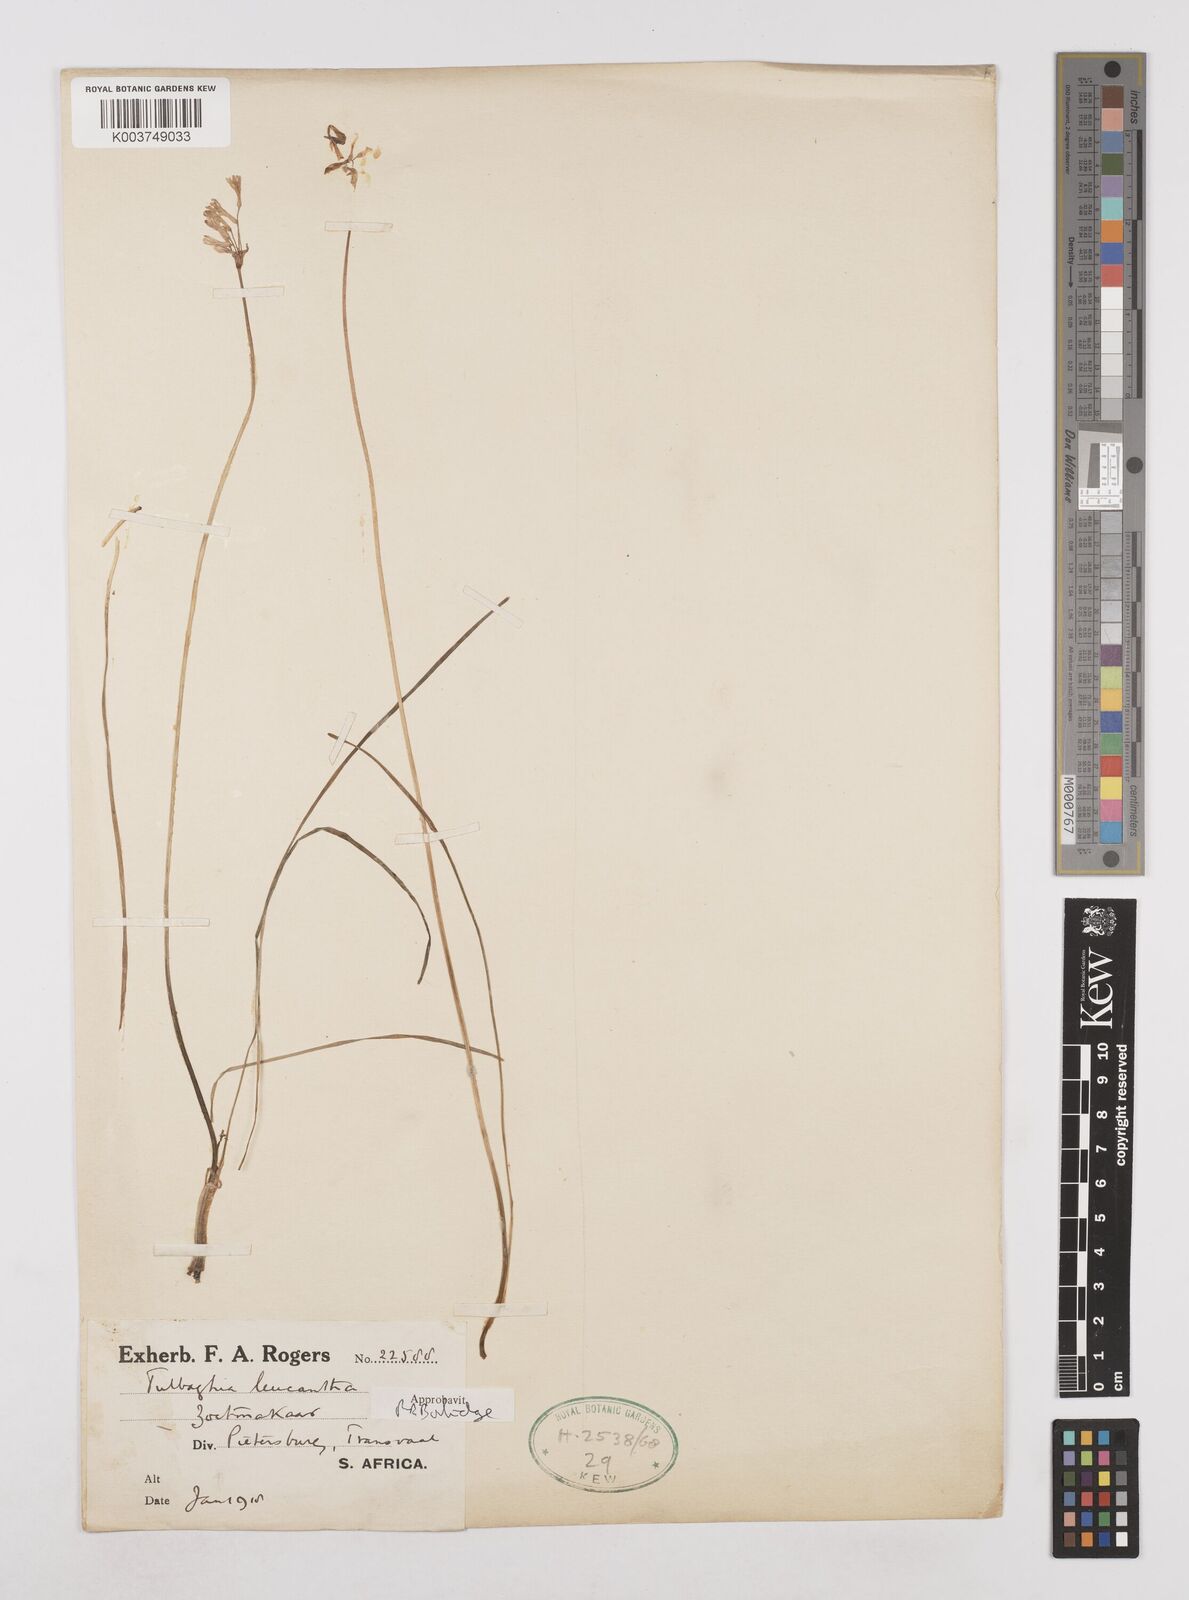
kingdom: Plantae
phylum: Tracheophyta
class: Liliopsida
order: Asparagales
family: Amaryllidaceae
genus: Tulbaghia
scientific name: Tulbaghia leucantha
